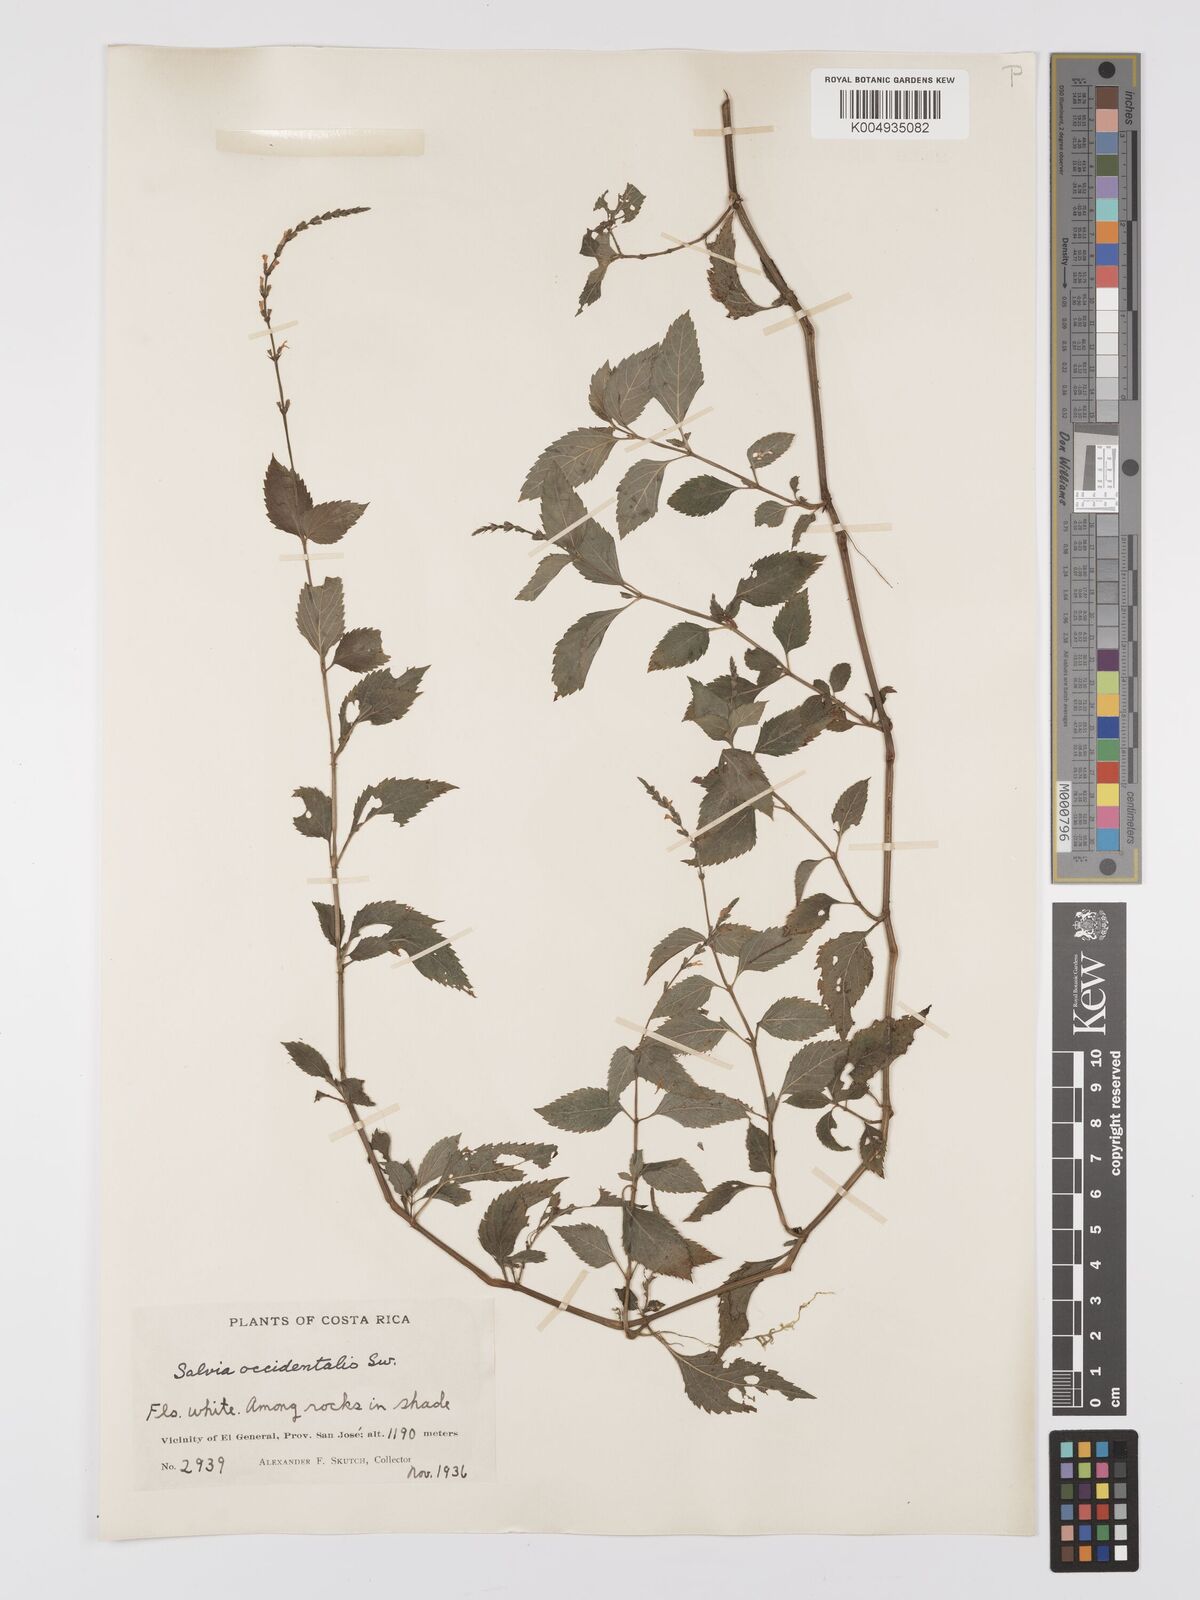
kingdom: Plantae
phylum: Tracheophyta
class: Magnoliopsida
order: Lamiales
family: Lamiaceae
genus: Salvia
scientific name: Salvia occidentalis
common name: West indian sage
